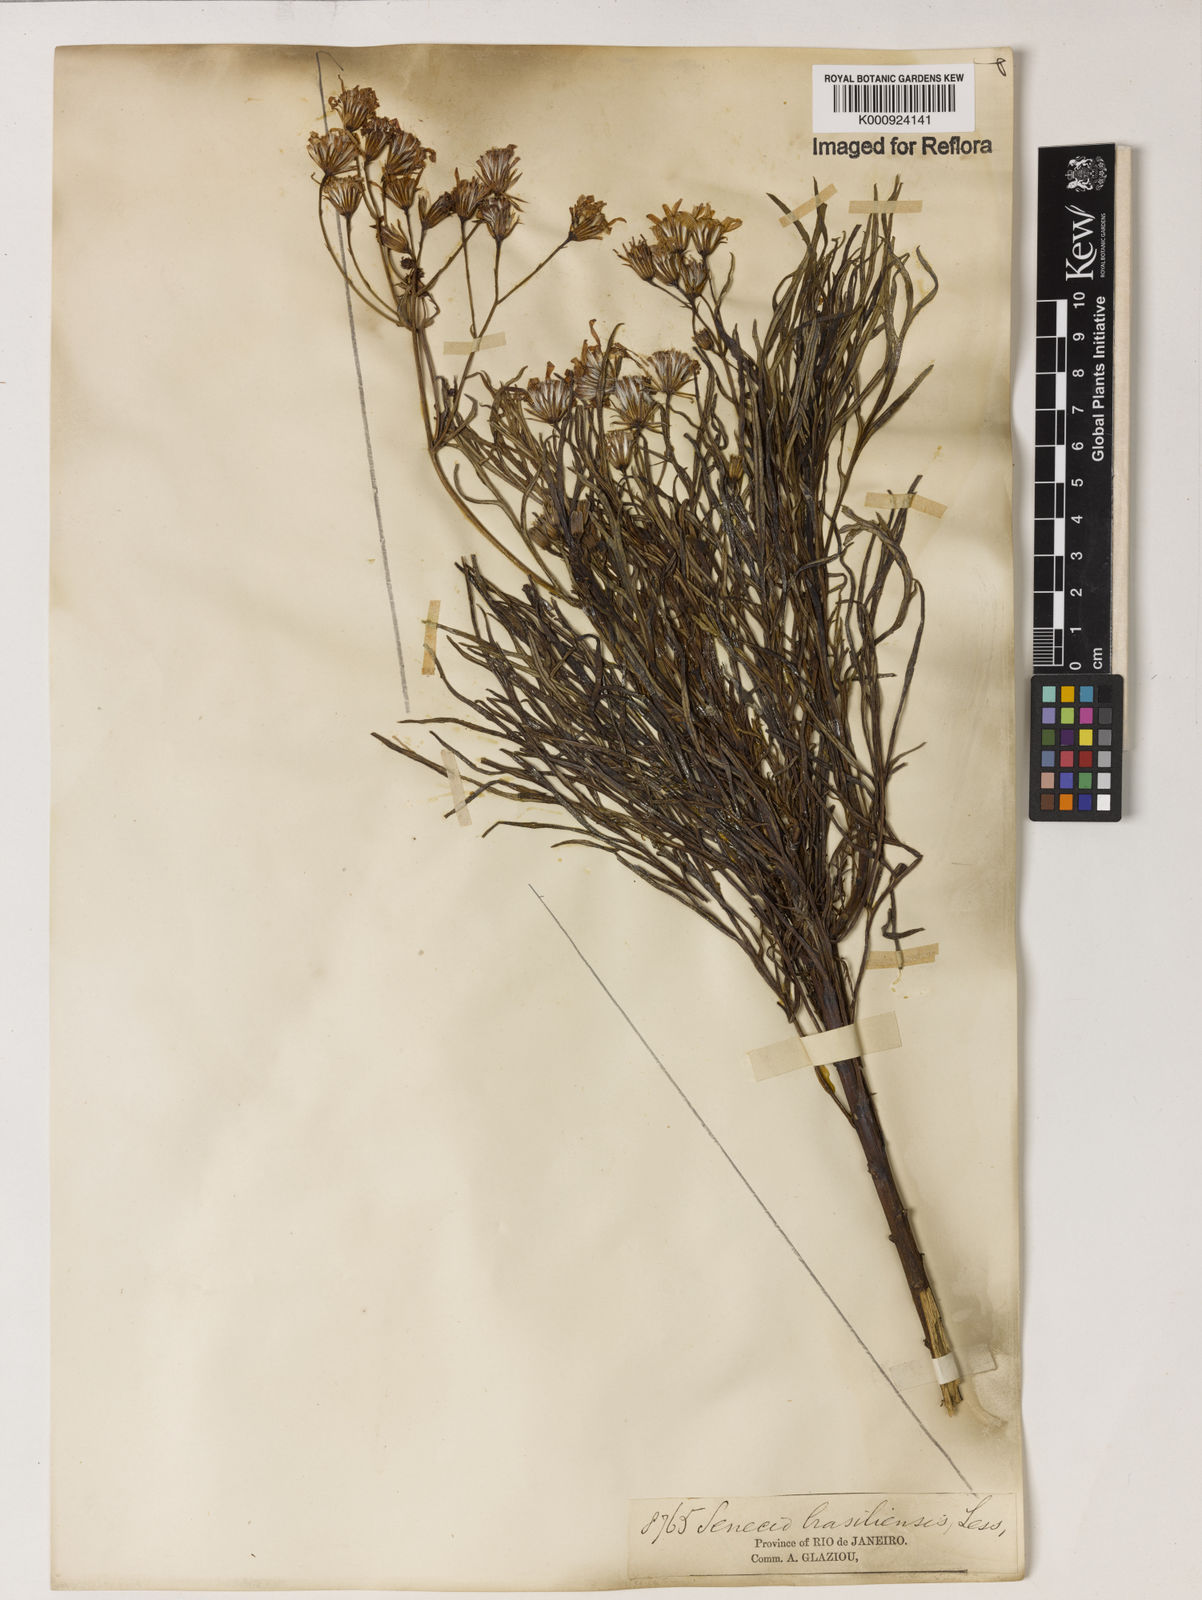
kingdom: Plantae
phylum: Tracheophyta
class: Magnoliopsida
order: Asterales
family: Asteraceae
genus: Senecio
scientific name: Senecio brasiliensis
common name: Hemp-leaf ragwort
